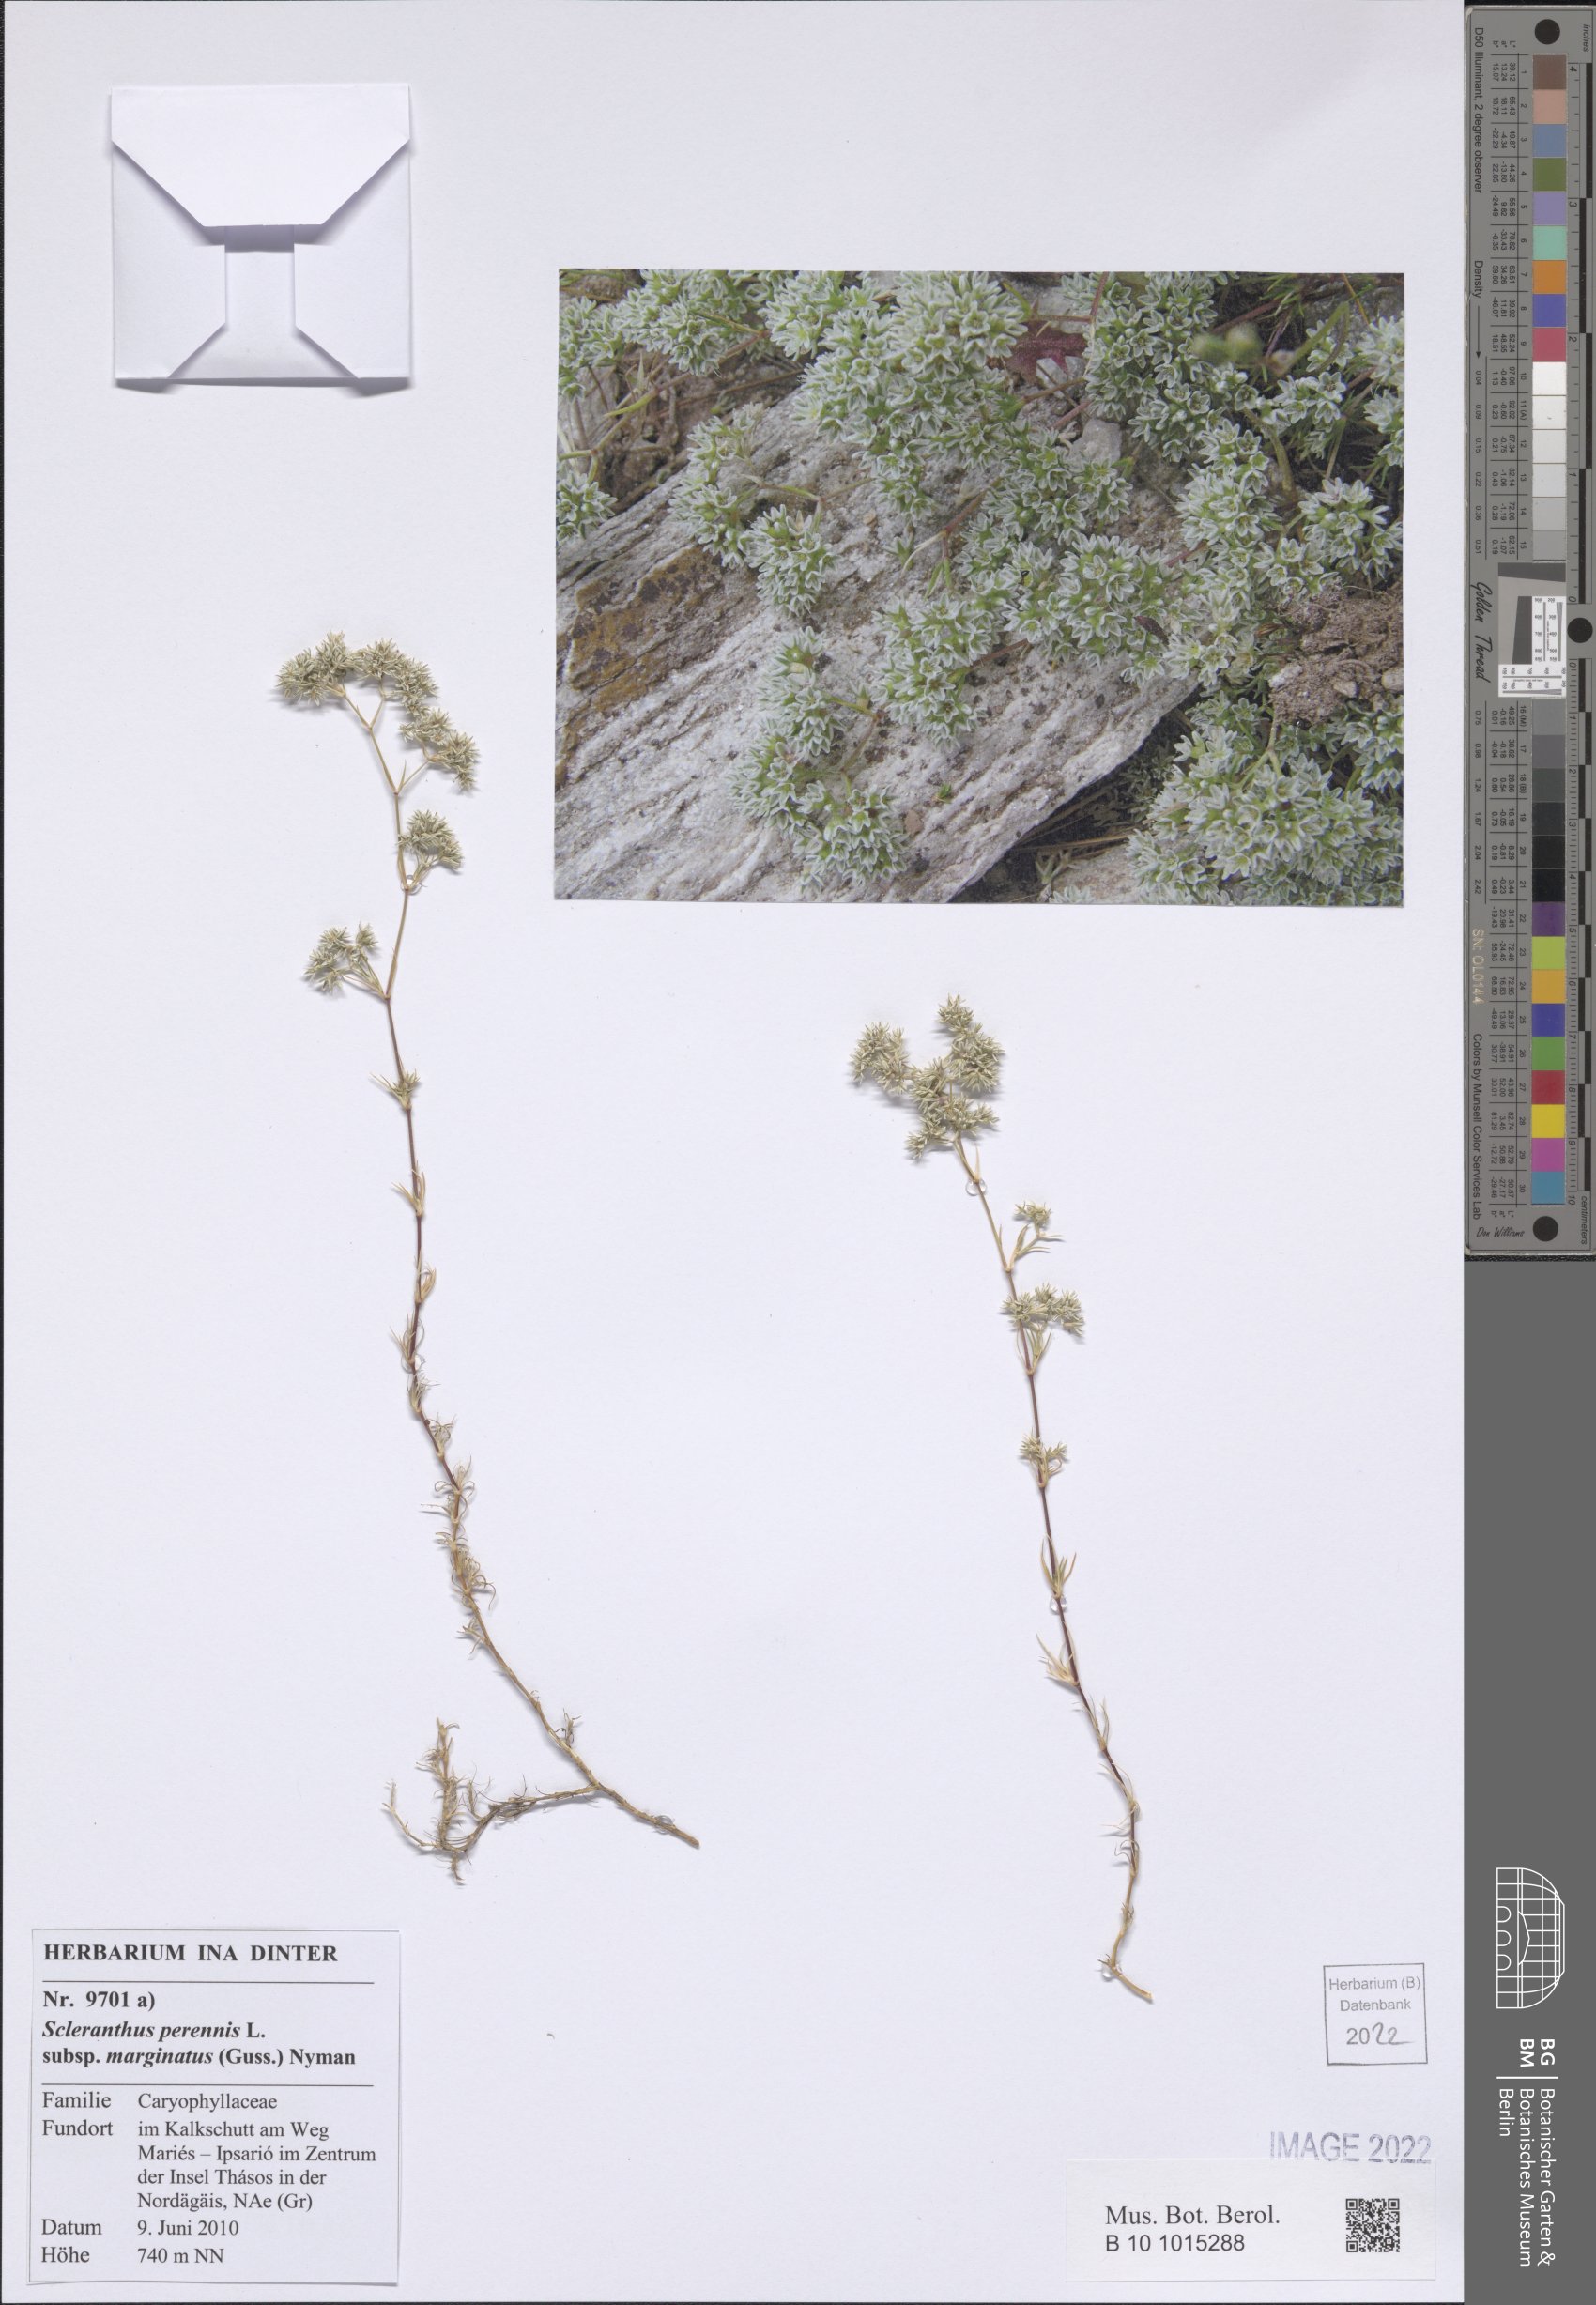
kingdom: Plantae
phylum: Tracheophyta
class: Magnoliopsida
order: Caryophyllales
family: Caryophyllaceae
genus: Scleranthus
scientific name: Scleranthus perennis
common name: Perennial knawel
